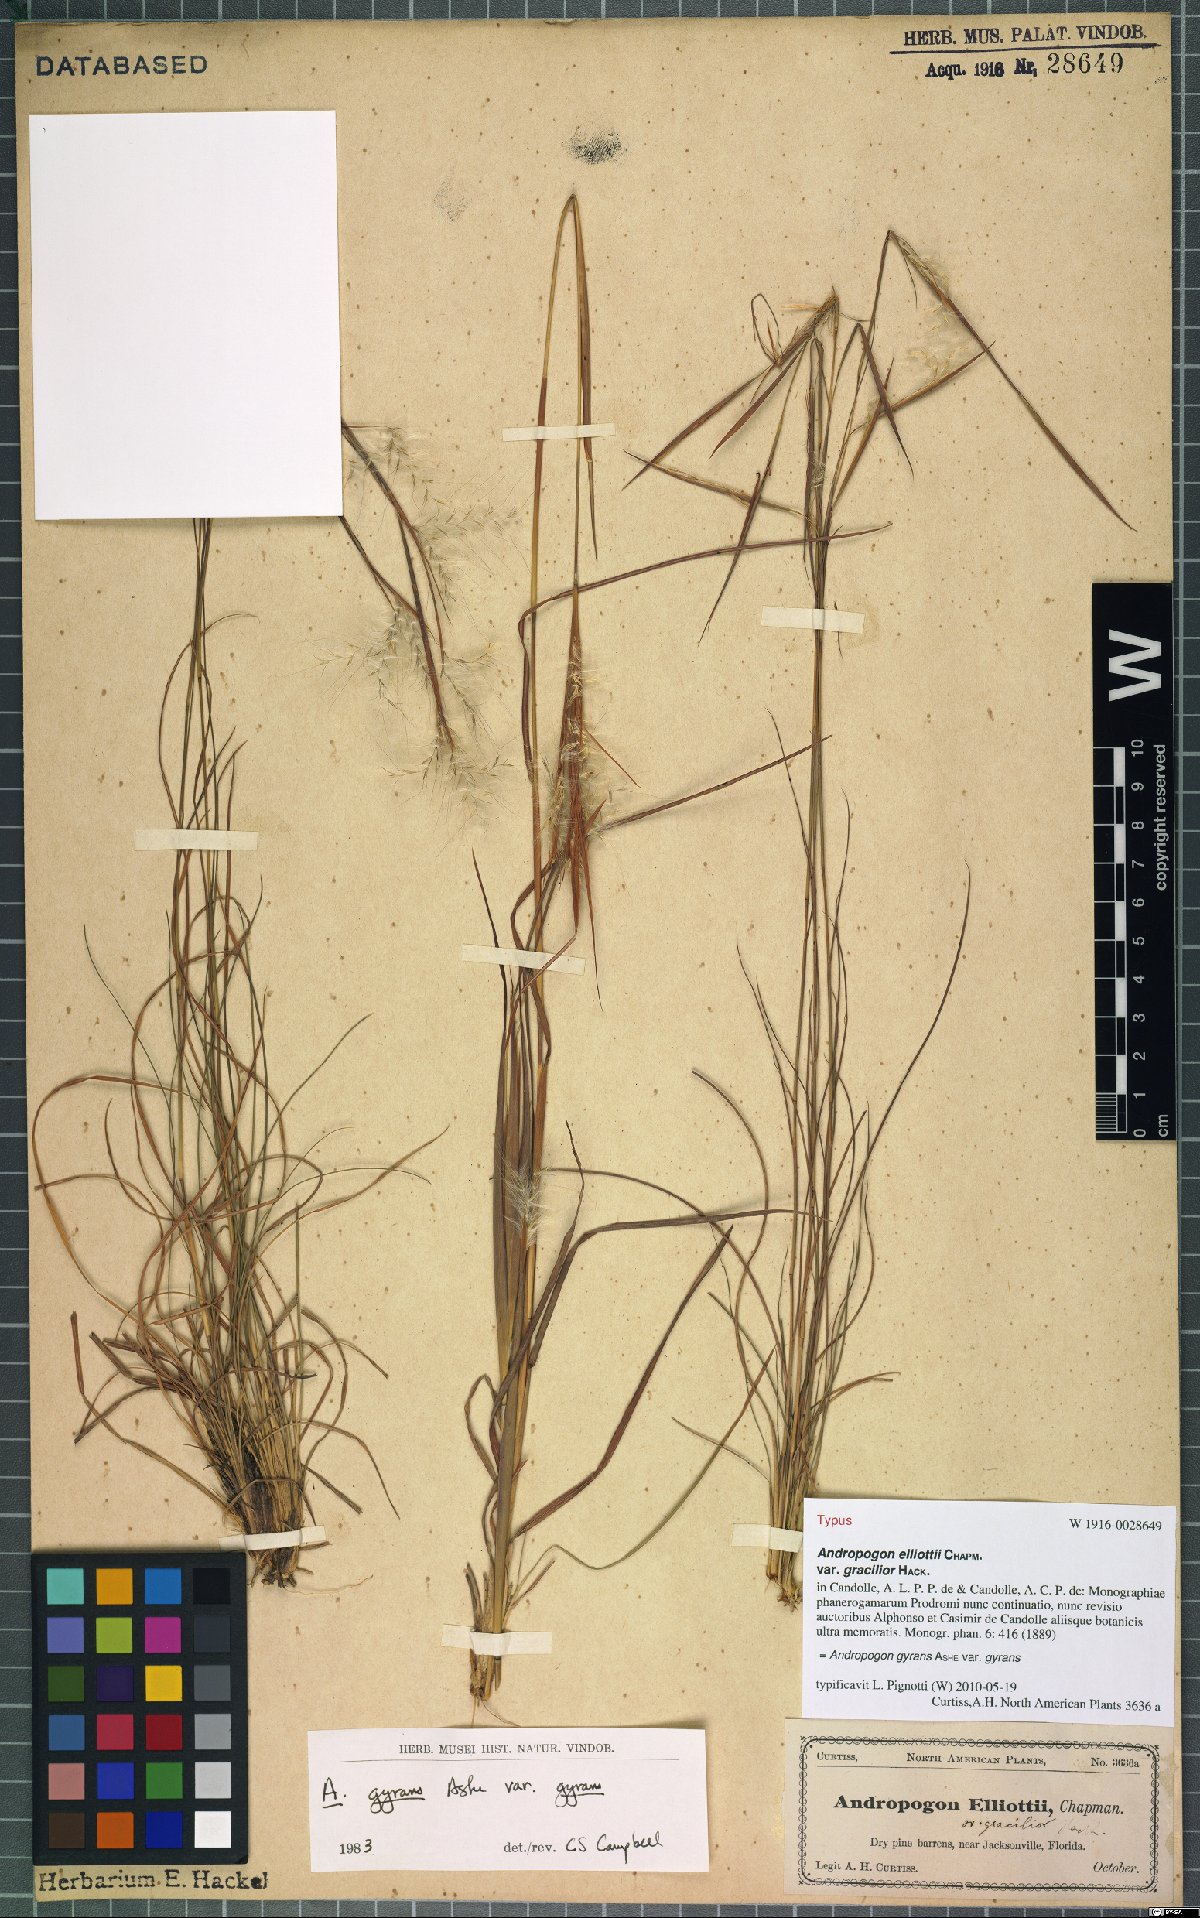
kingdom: Plantae
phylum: Tracheophyta
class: Liliopsida
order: Poales
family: Poaceae
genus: Andropogon
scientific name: Andropogon gyrans
